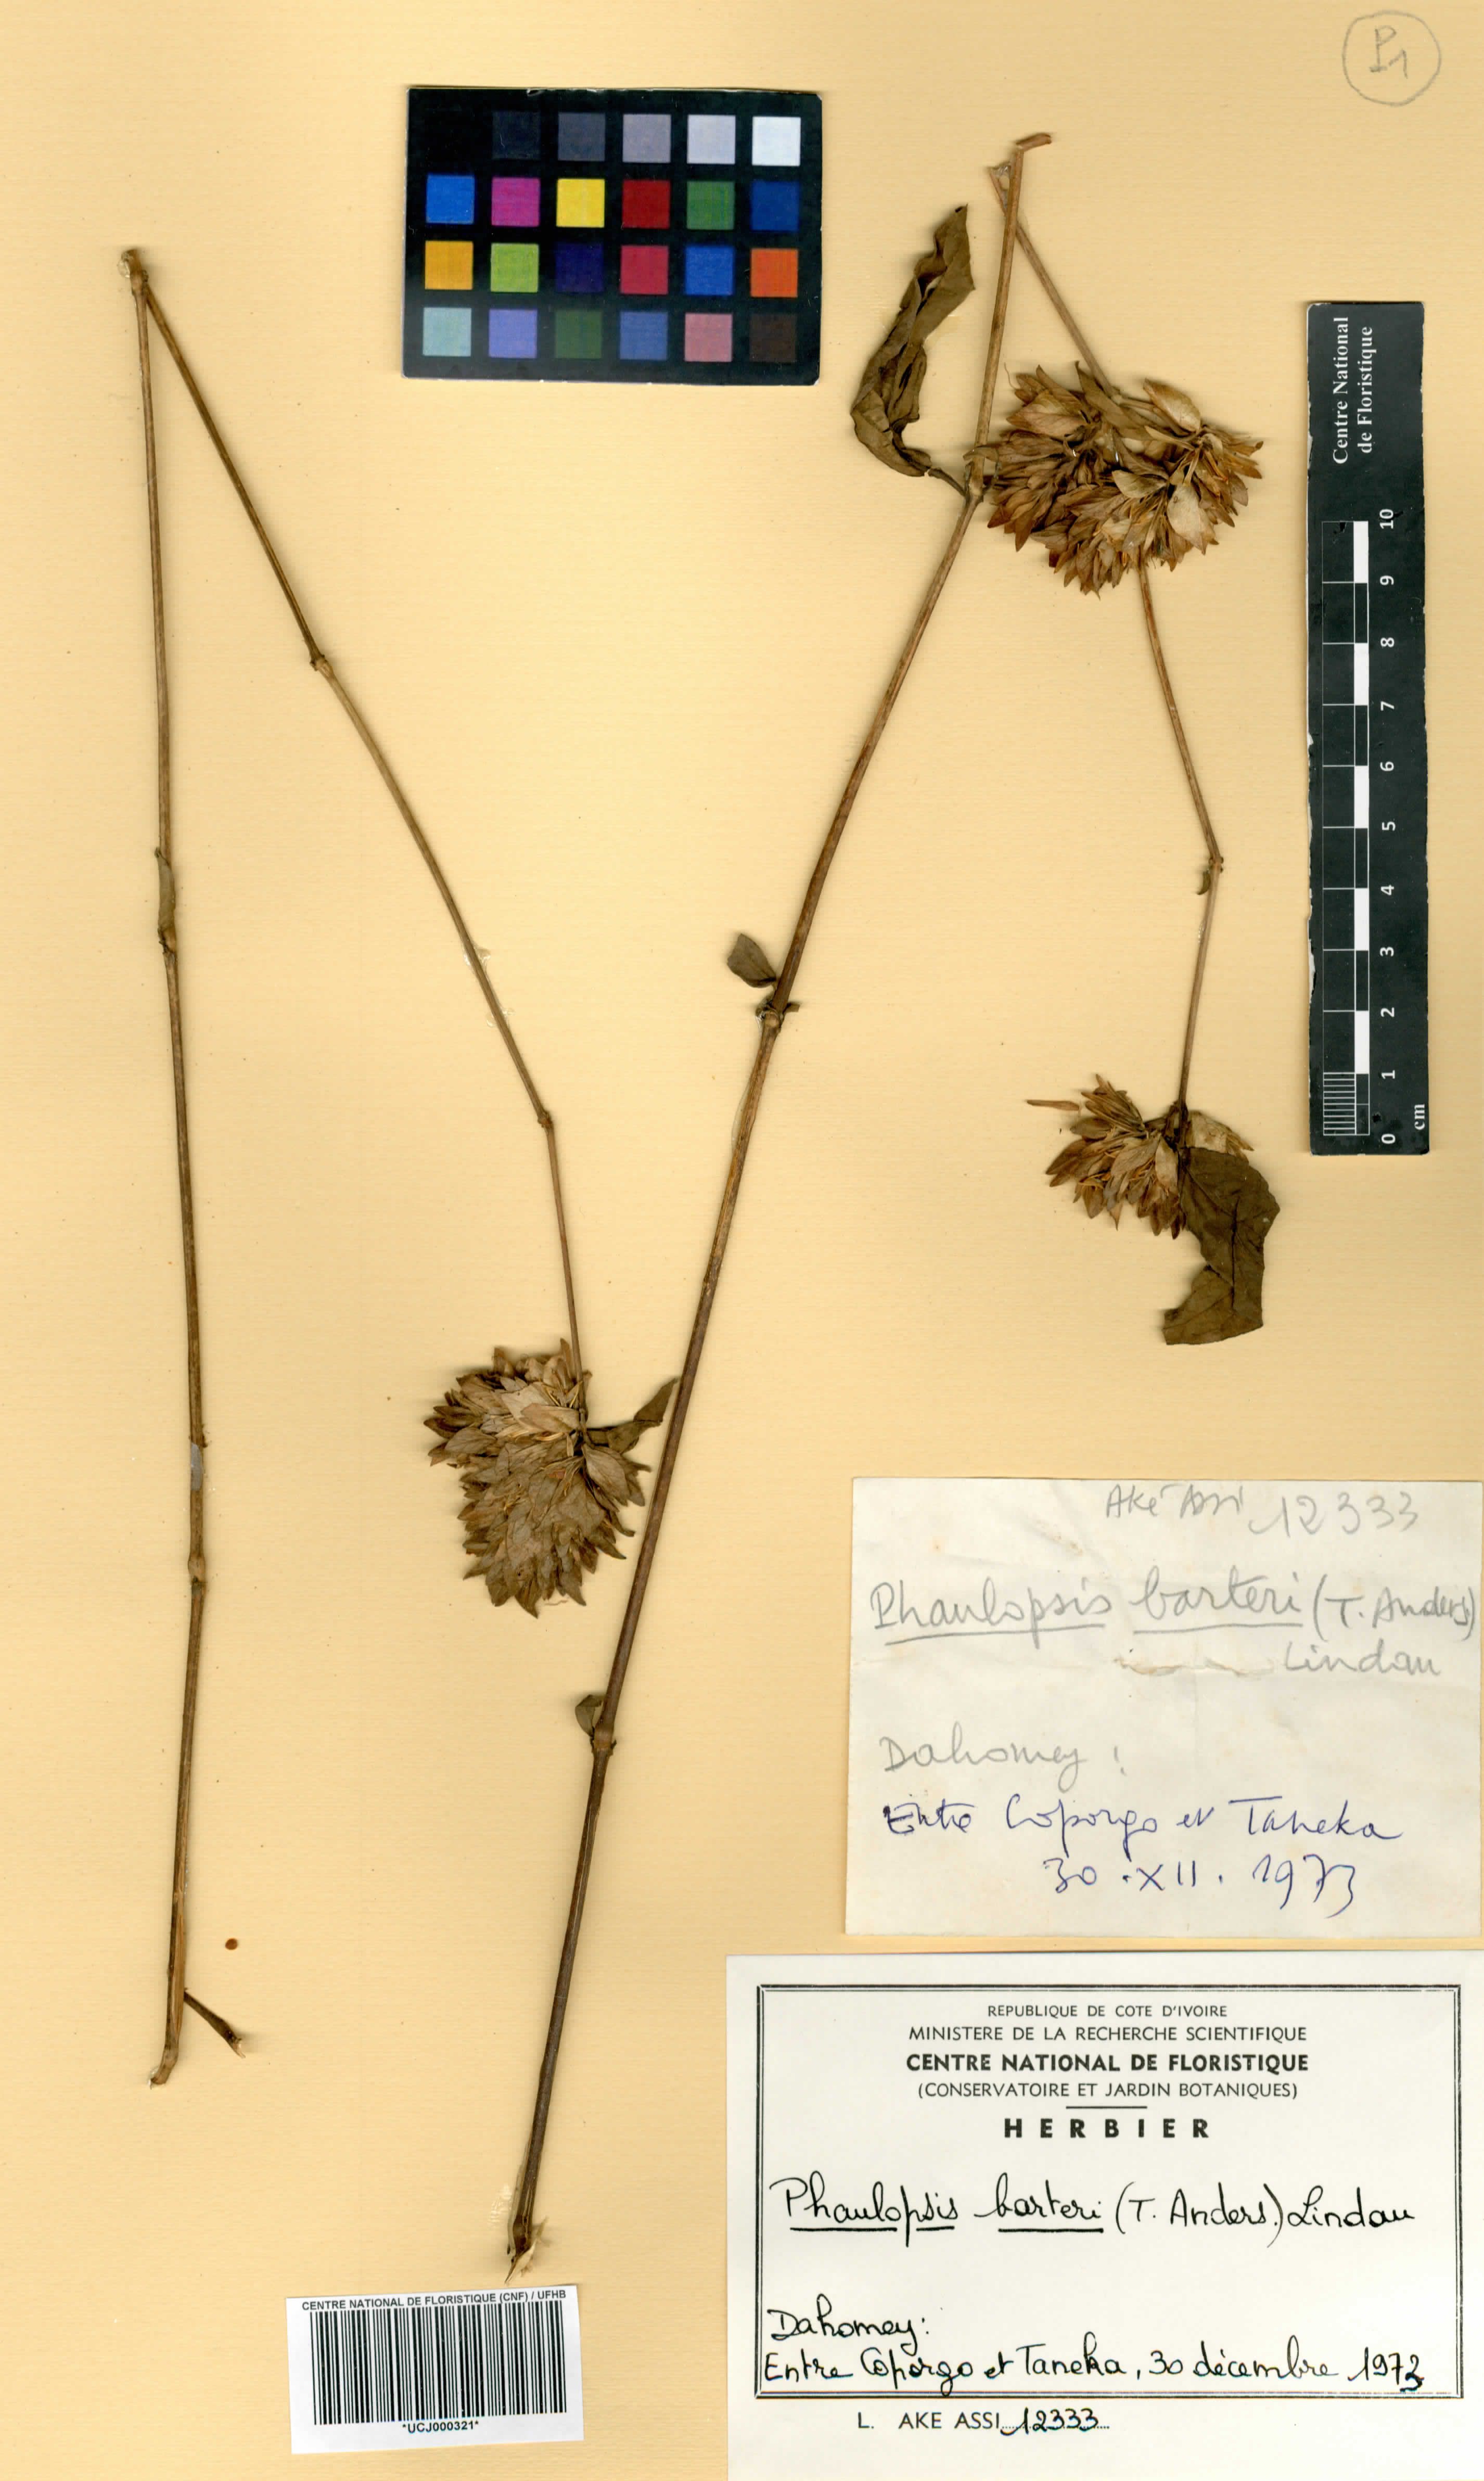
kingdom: Plantae
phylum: Tracheophyta
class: Magnoliopsida
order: Lamiales
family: Acanthaceae
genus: Phaulopsis
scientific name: Phaulopsis barteri
